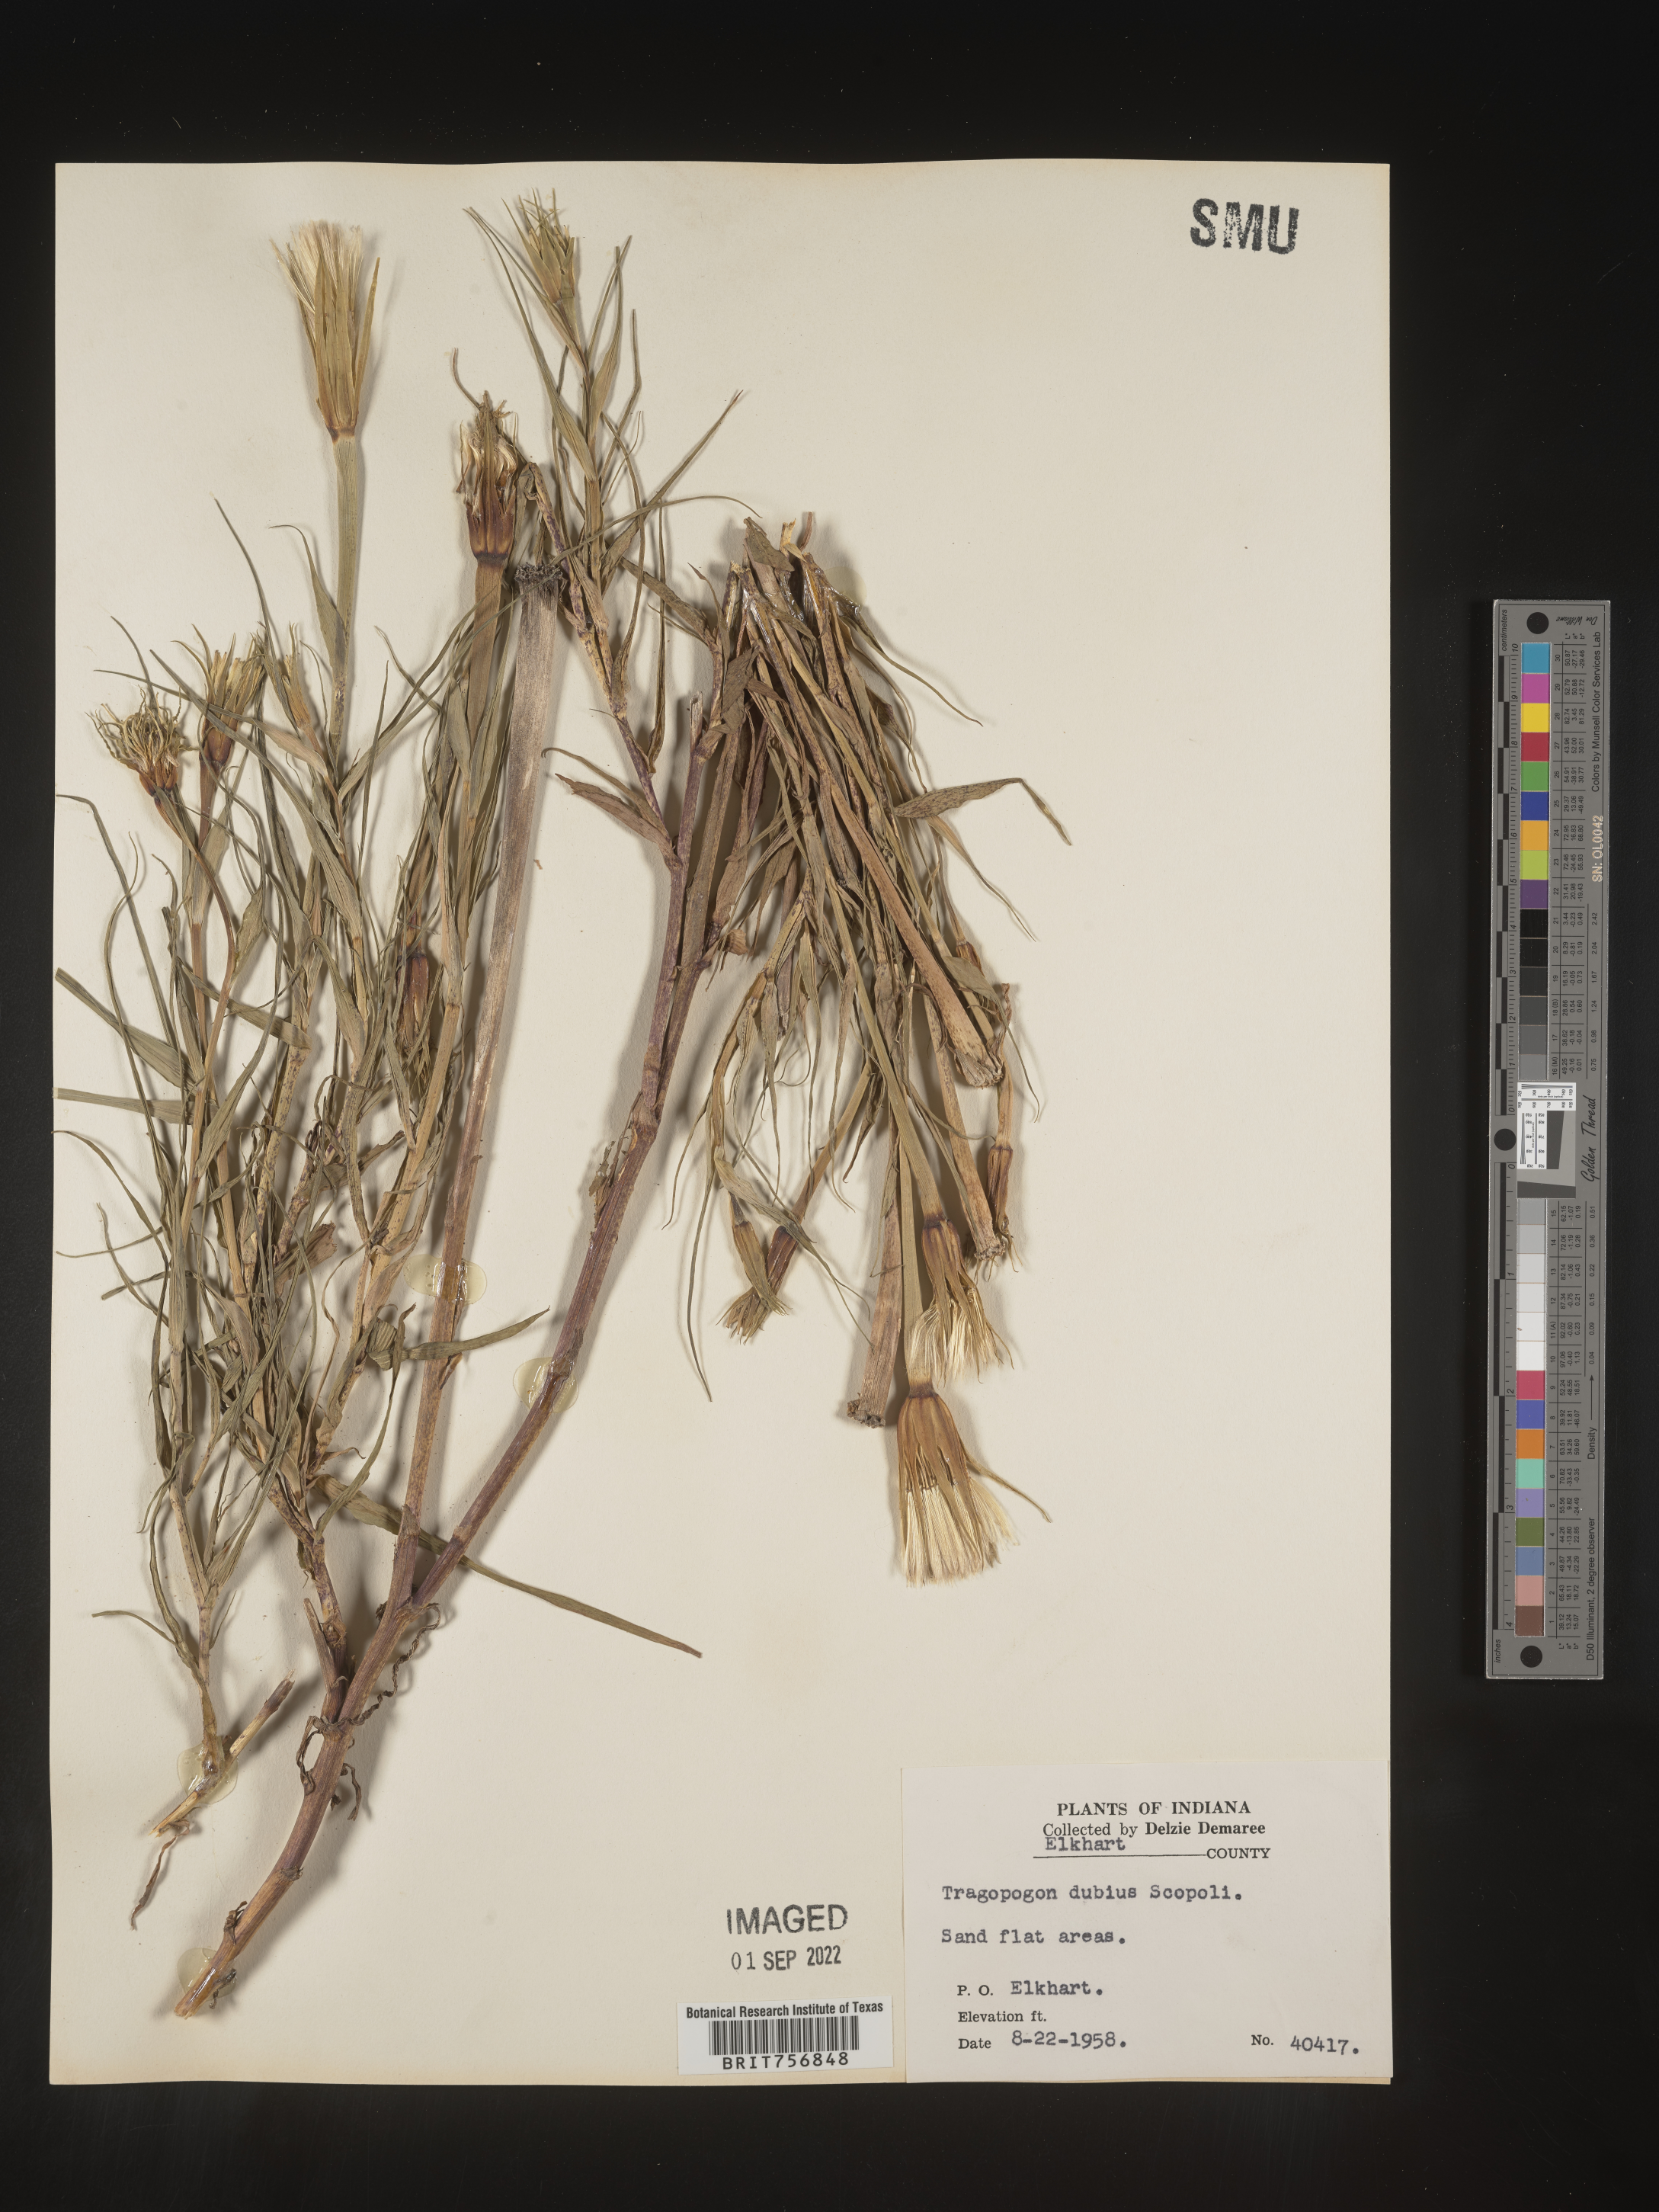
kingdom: Plantae
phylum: Tracheophyta
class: Magnoliopsida
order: Asterales
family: Asteraceae
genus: Tragopogon
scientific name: Tragopogon dubius
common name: Yellow salsify
